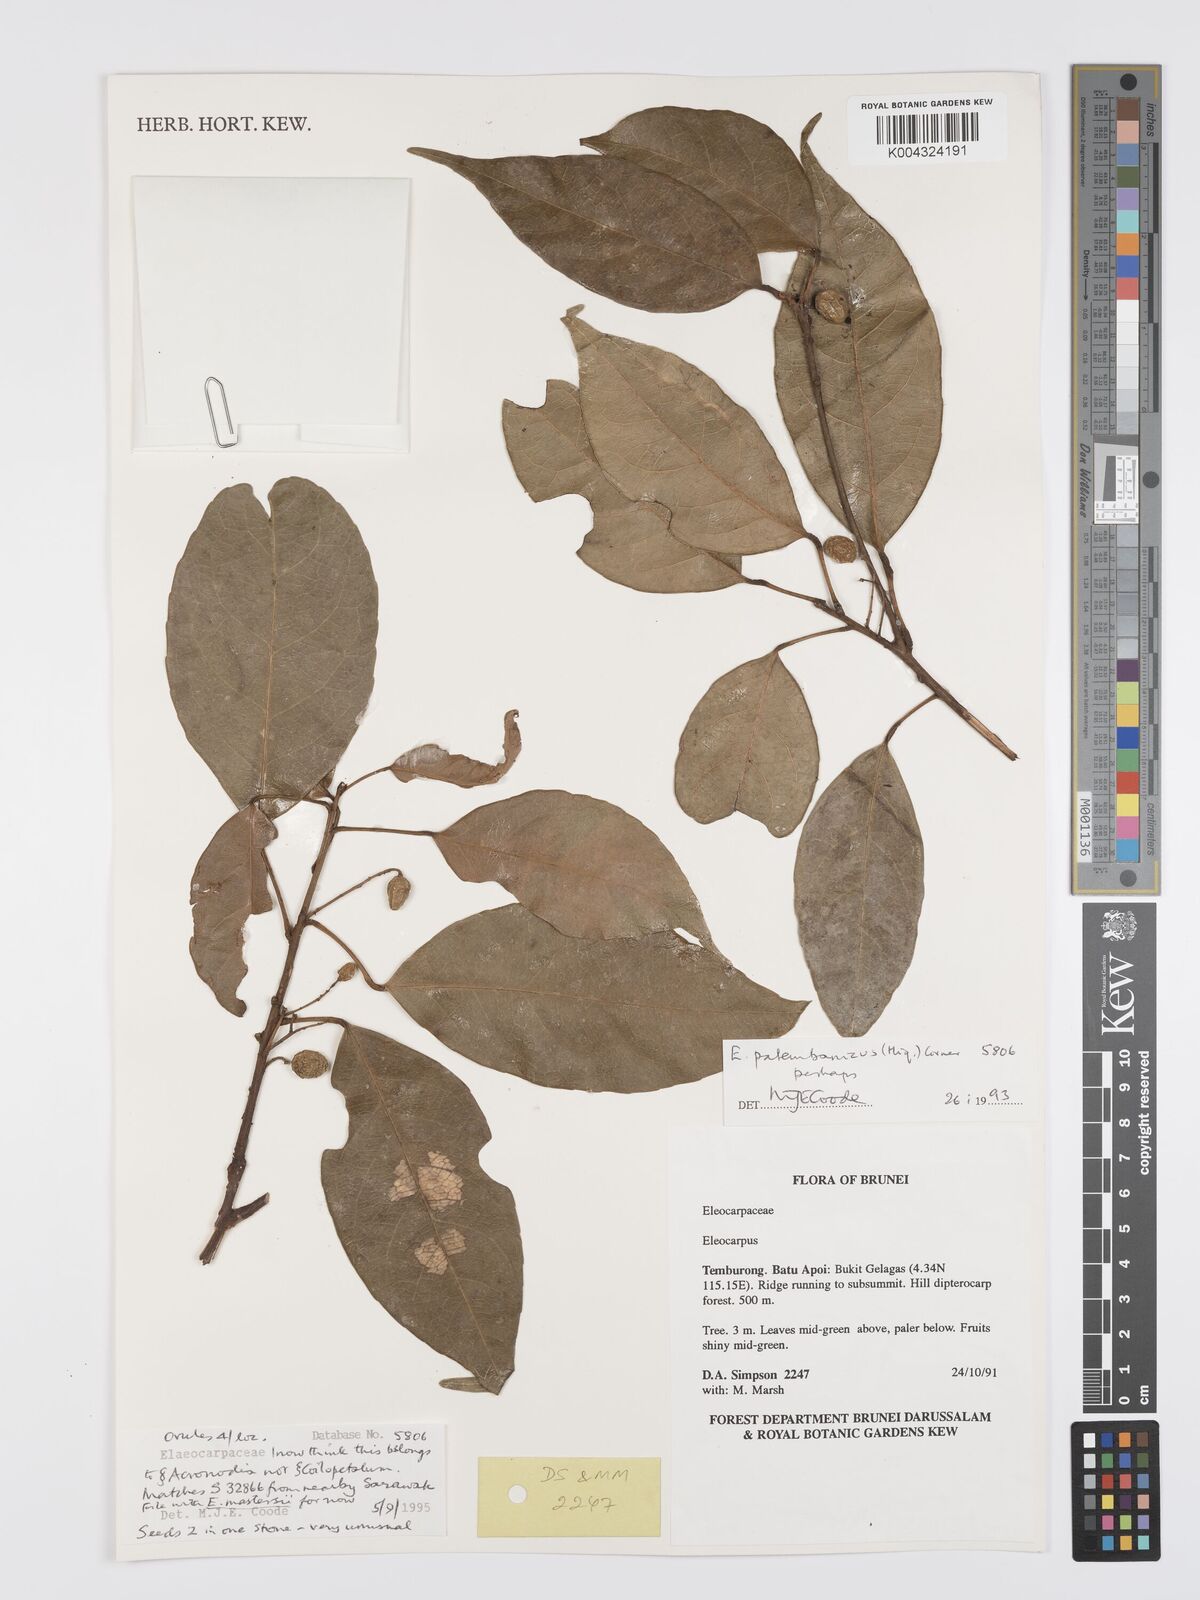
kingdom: Plantae
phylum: Tracheophyta
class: Magnoliopsida
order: Oxalidales
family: Elaeocarpaceae
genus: Elaeocarpus
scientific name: Elaeocarpus mastersii
